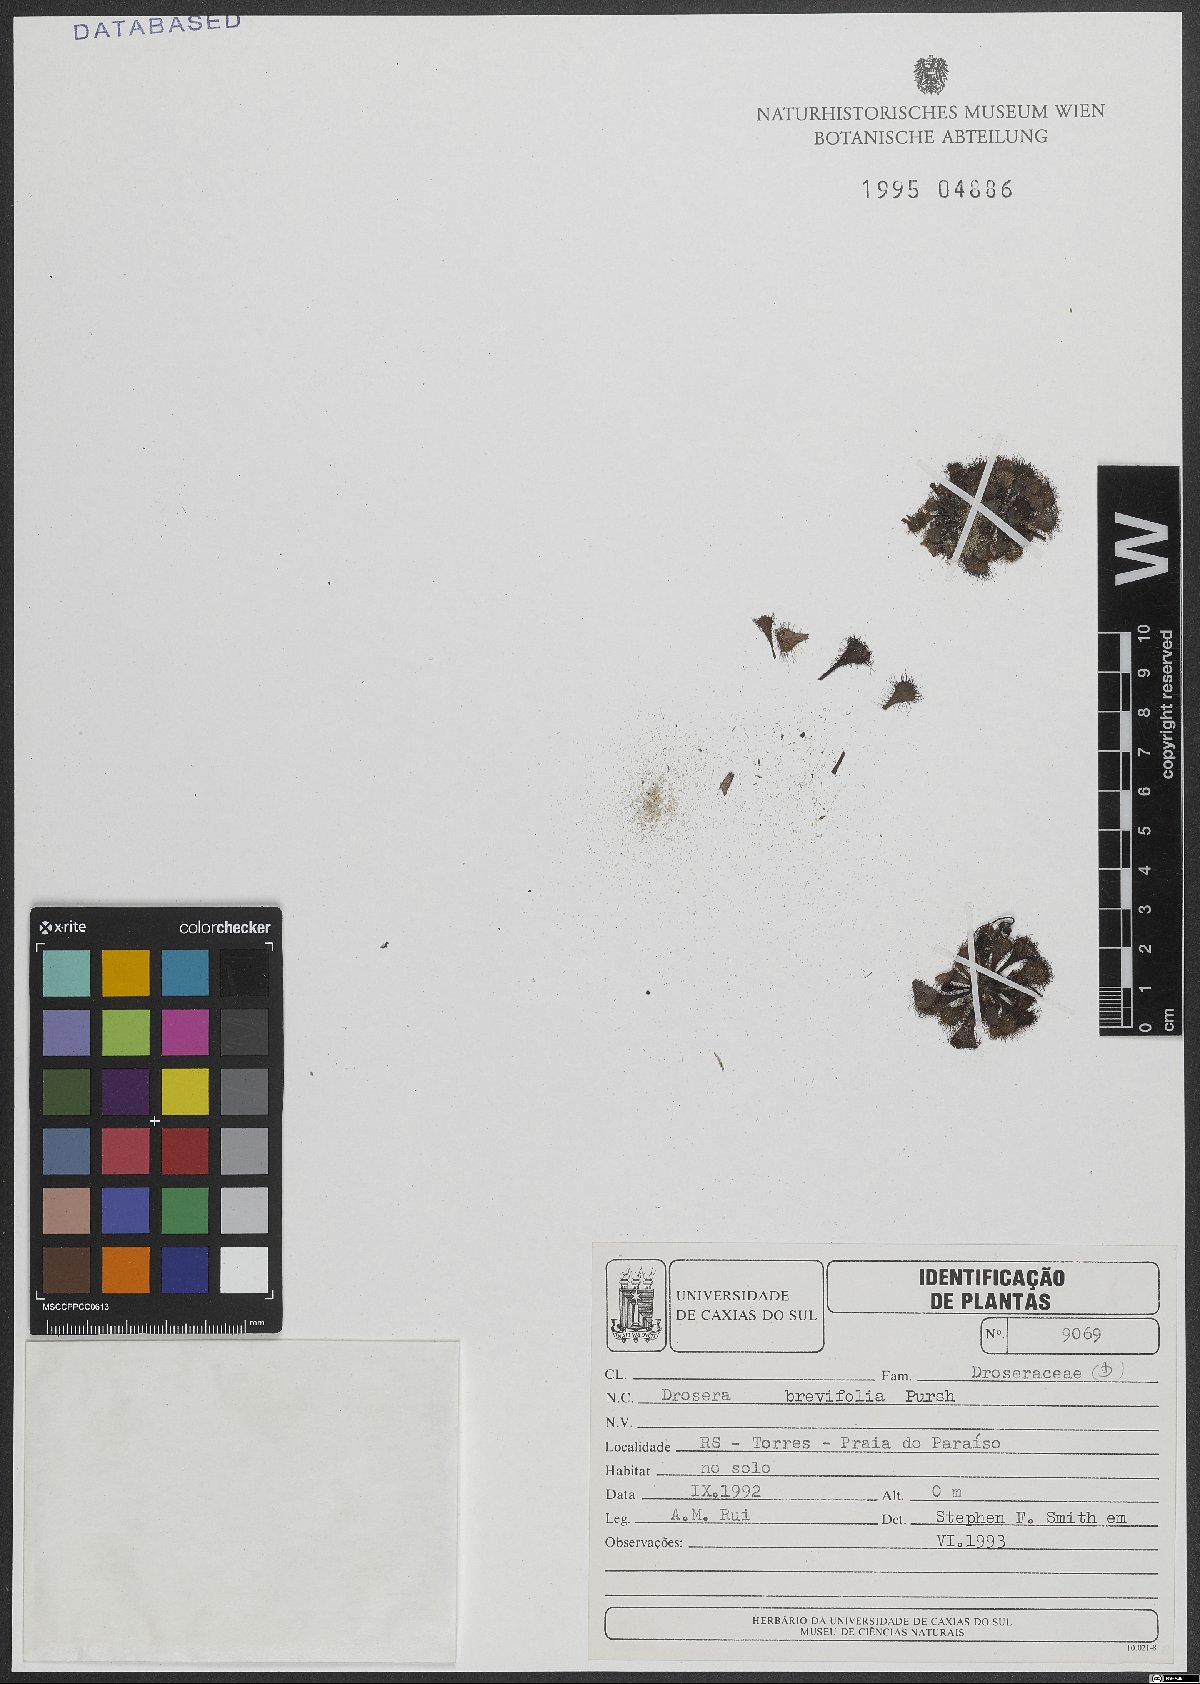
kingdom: Plantae
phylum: Tracheophyta
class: Magnoliopsida
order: Caryophyllales
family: Droseraceae
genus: Drosera
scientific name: Drosera brevifolia
